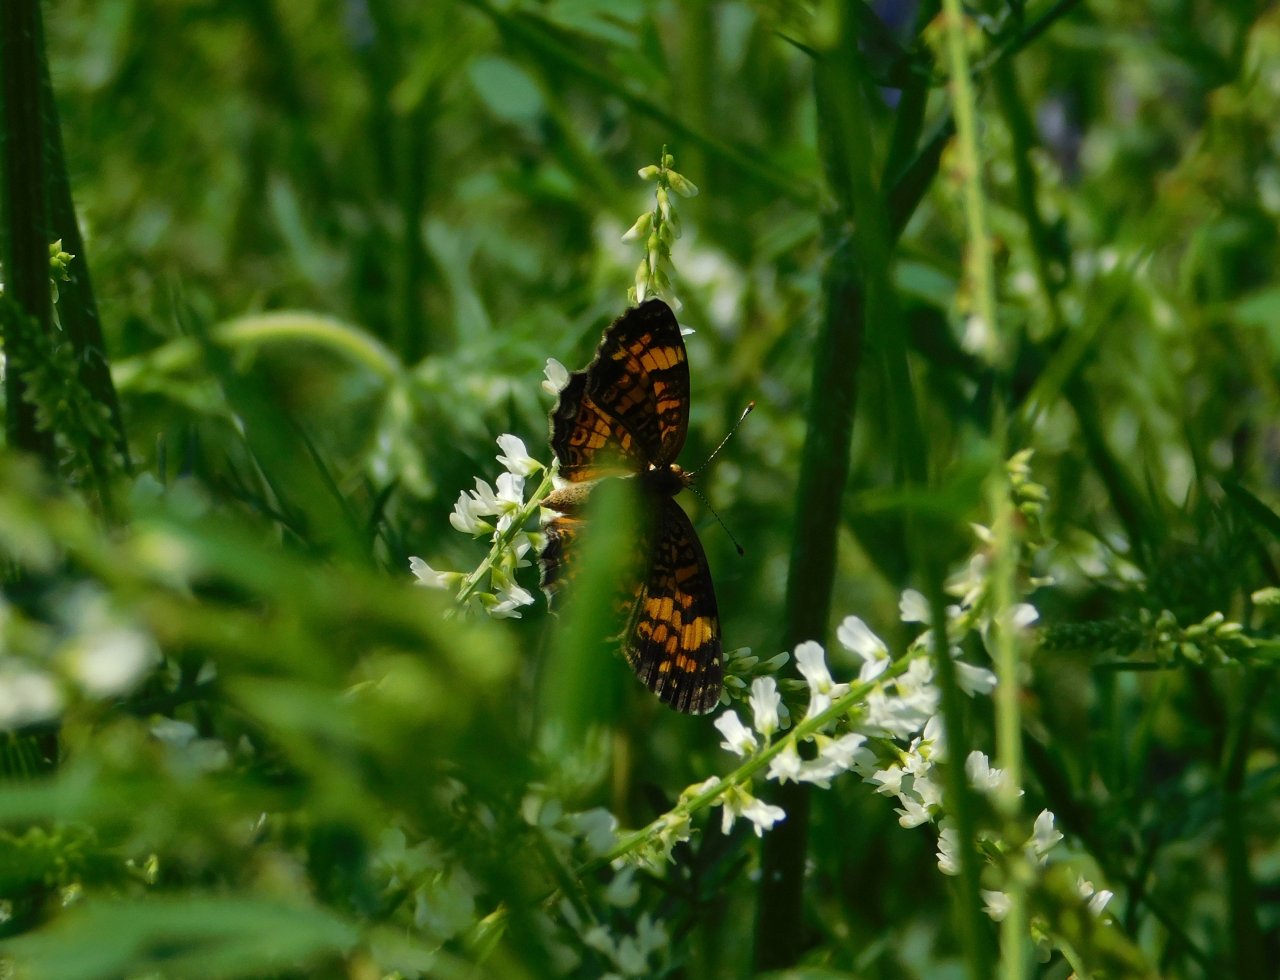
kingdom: Animalia
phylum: Arthropoda
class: Insecta
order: Lepidoptera
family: Nymphalidae
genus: Phyciodes
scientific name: Phyciodes tharos
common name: Northern Crescent
